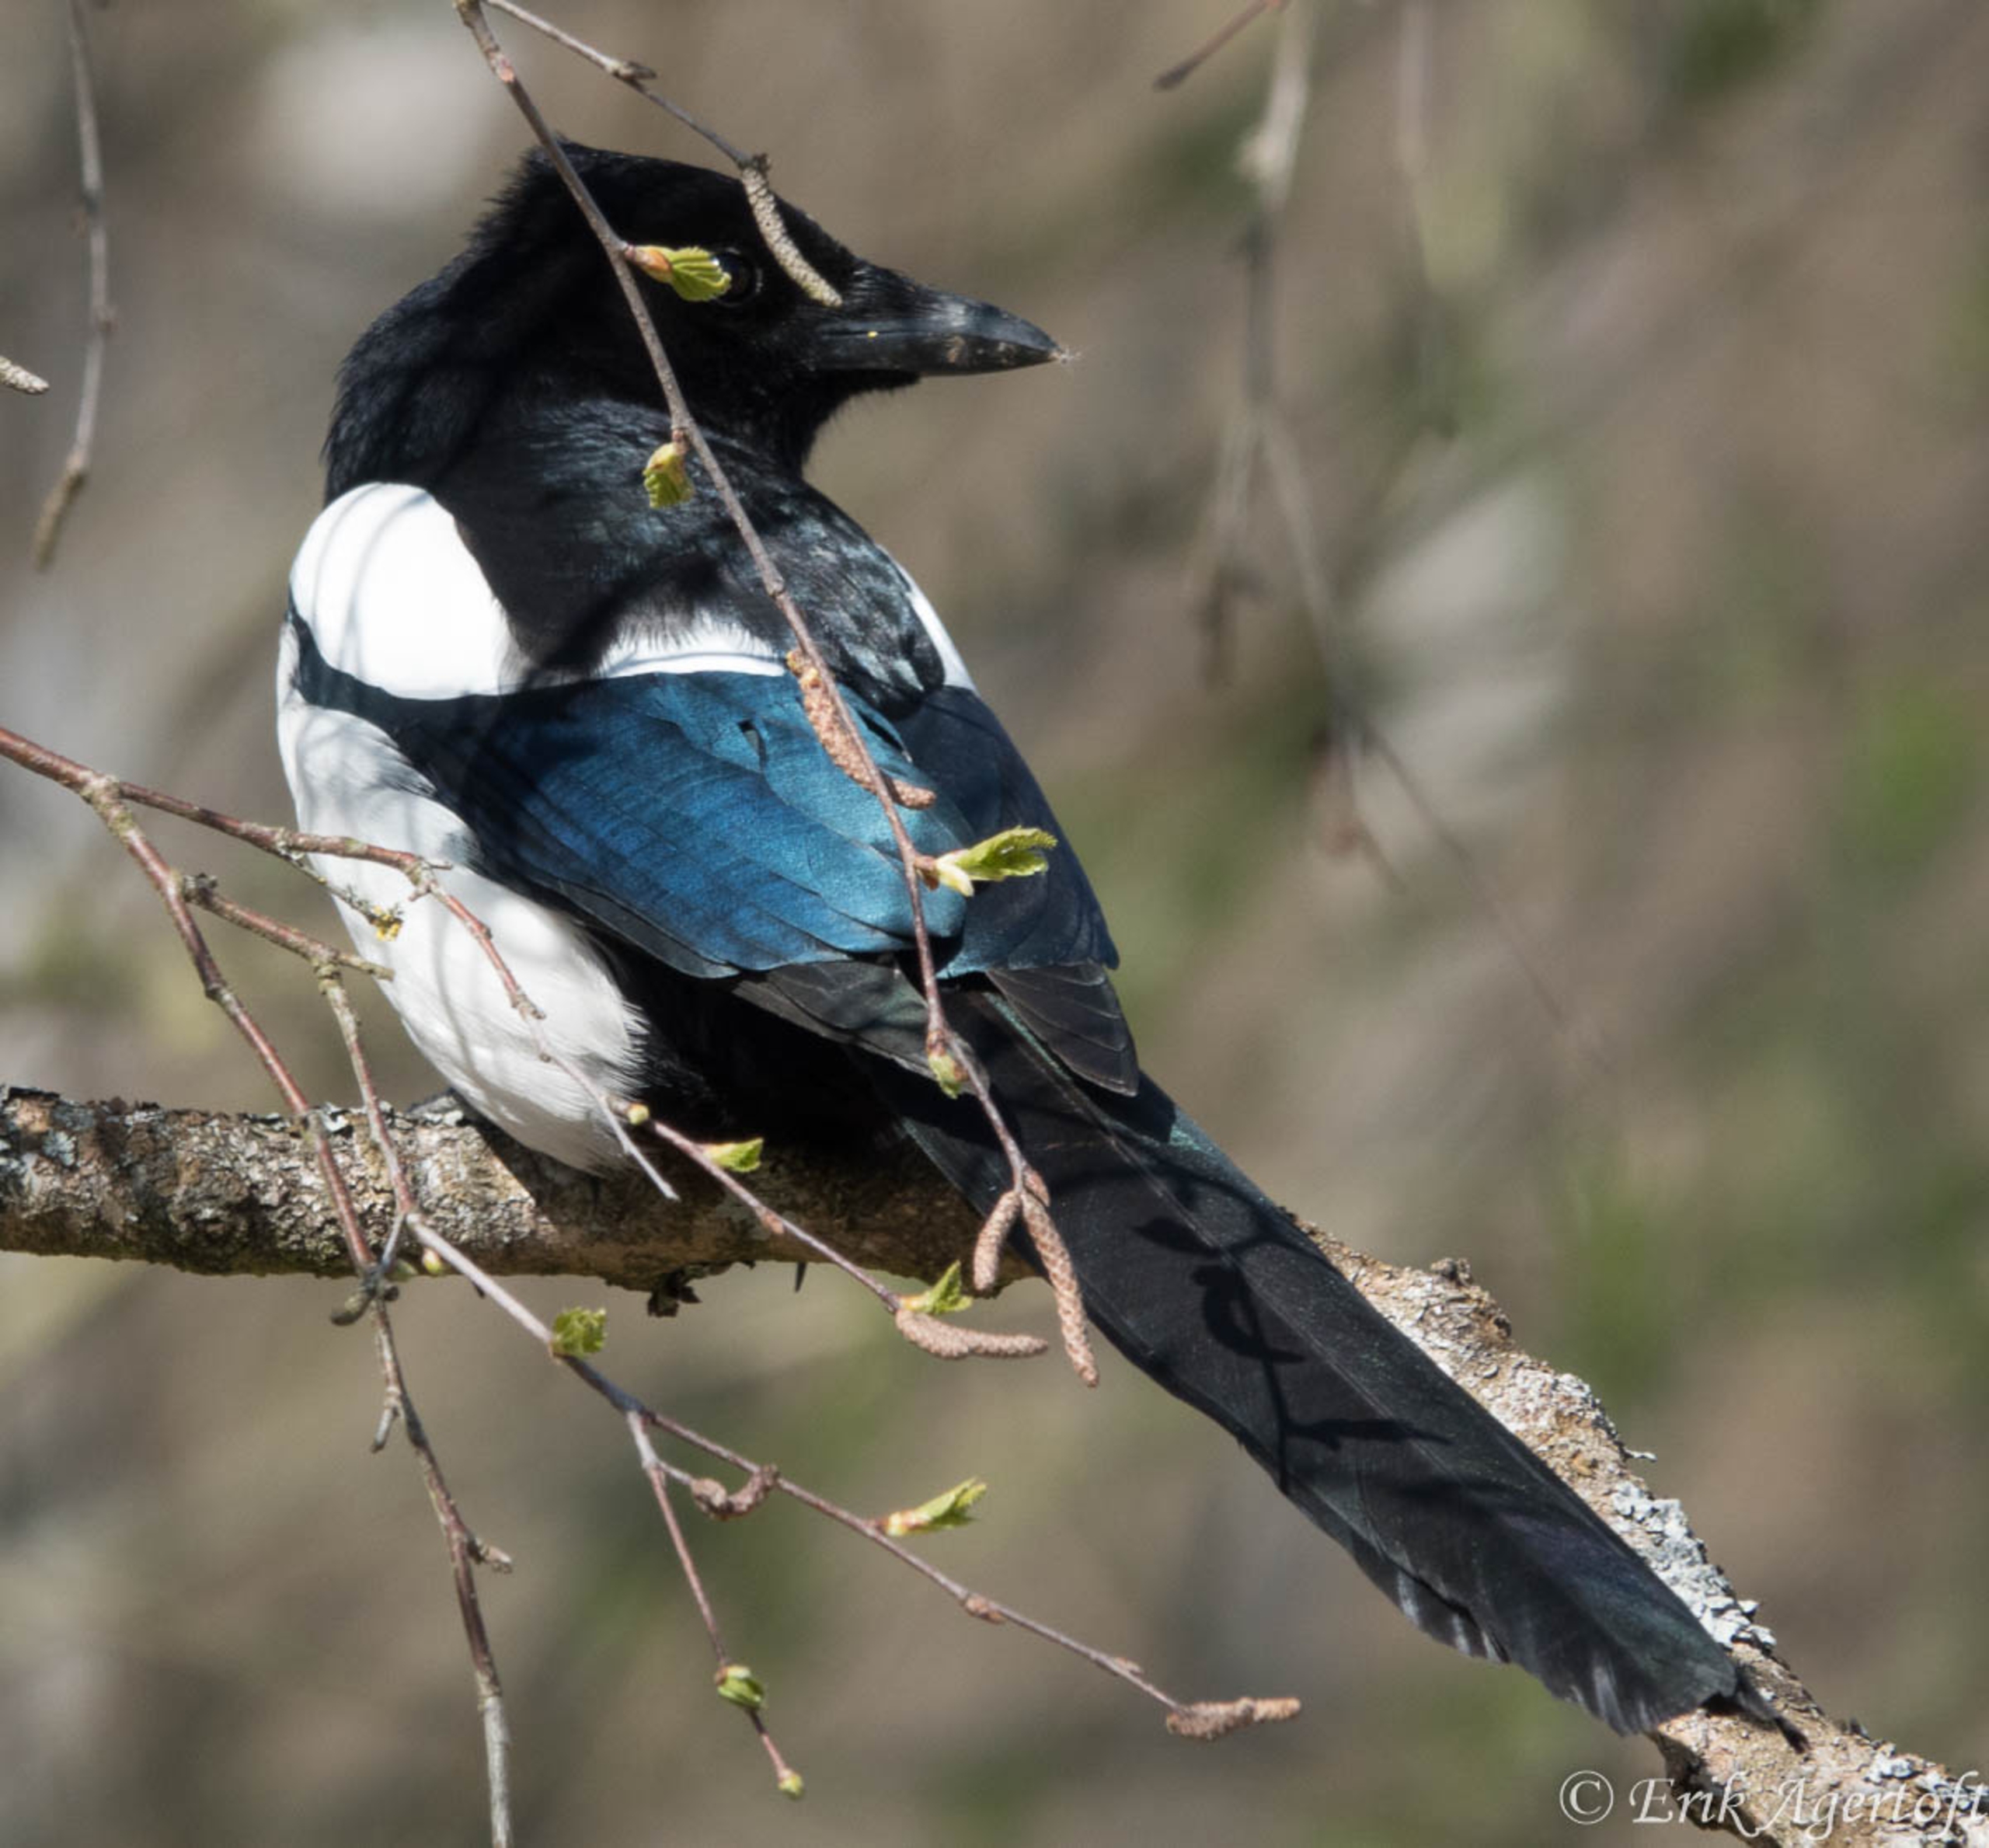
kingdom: Animalia
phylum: Chordata
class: Aves
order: Passeriformes
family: Corvidae
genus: Pica
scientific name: Pica pica
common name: Husskade
